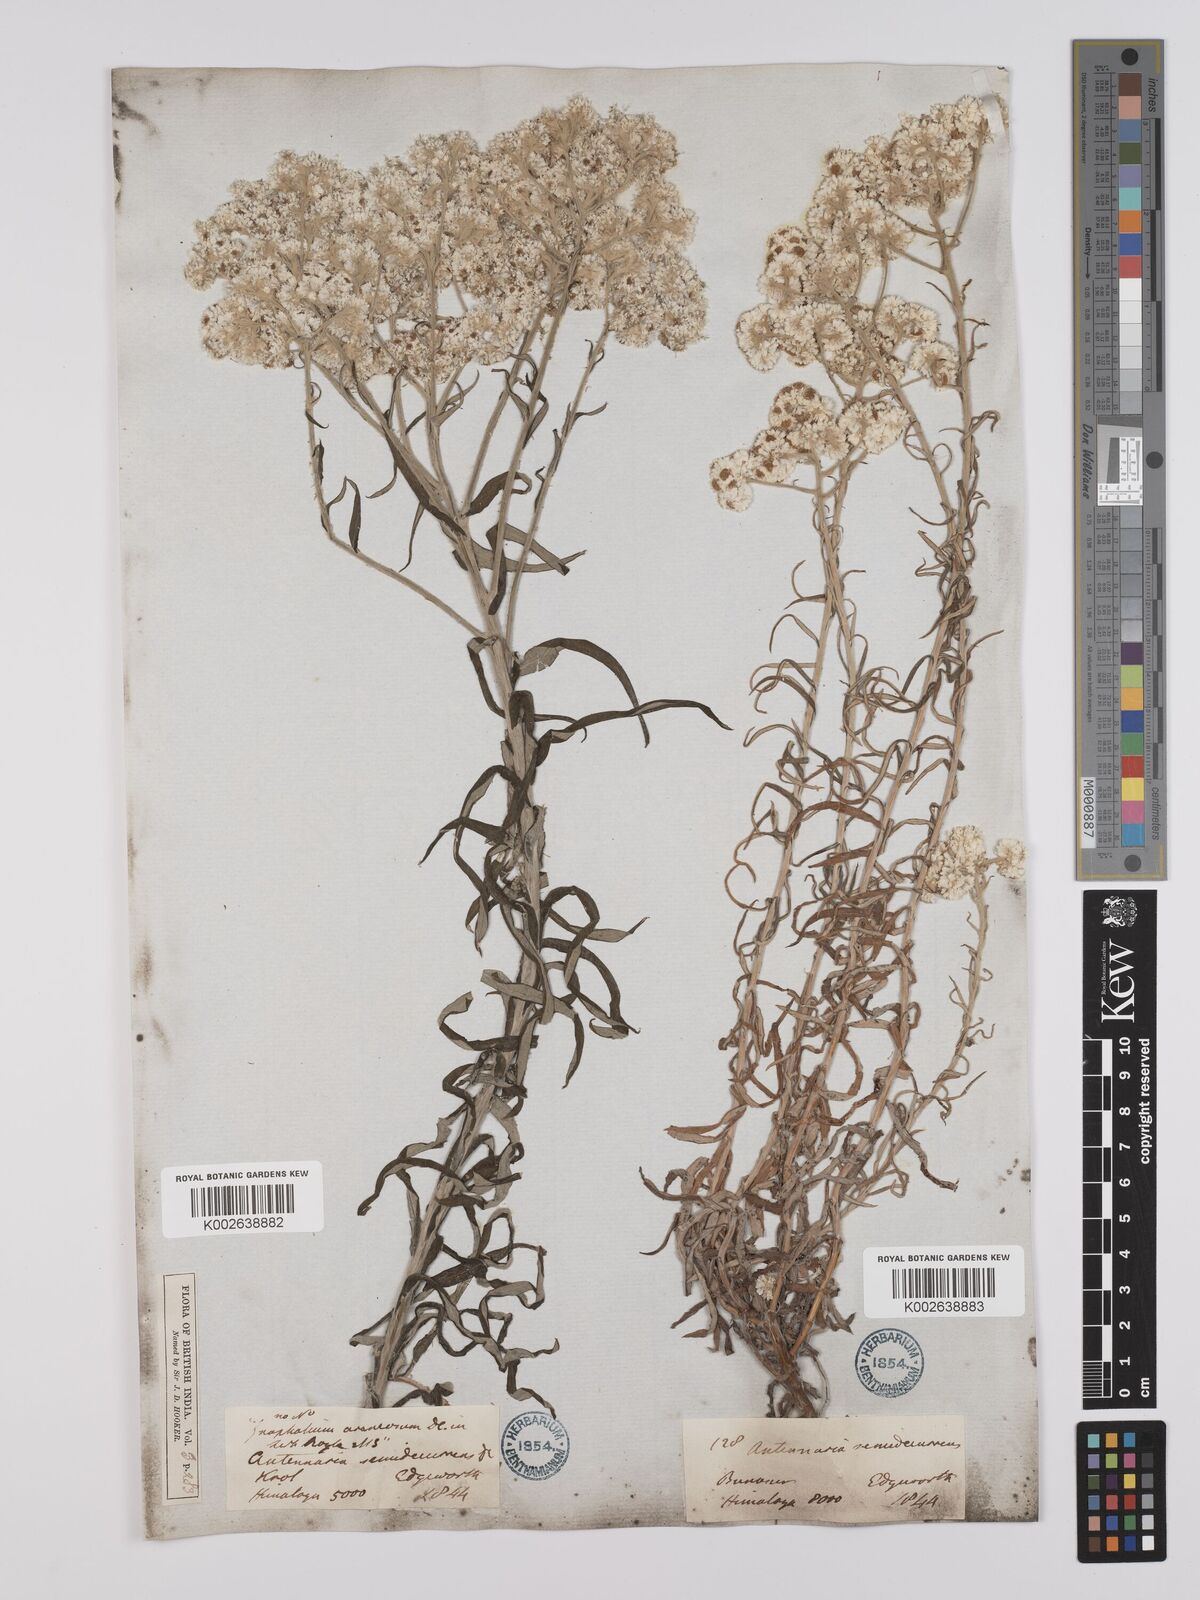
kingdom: Plantae
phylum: Tracheophyta
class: Magnoliopsida
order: Asterales
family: Asteraceae
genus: Anaphalis
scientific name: Anaphalis busua
